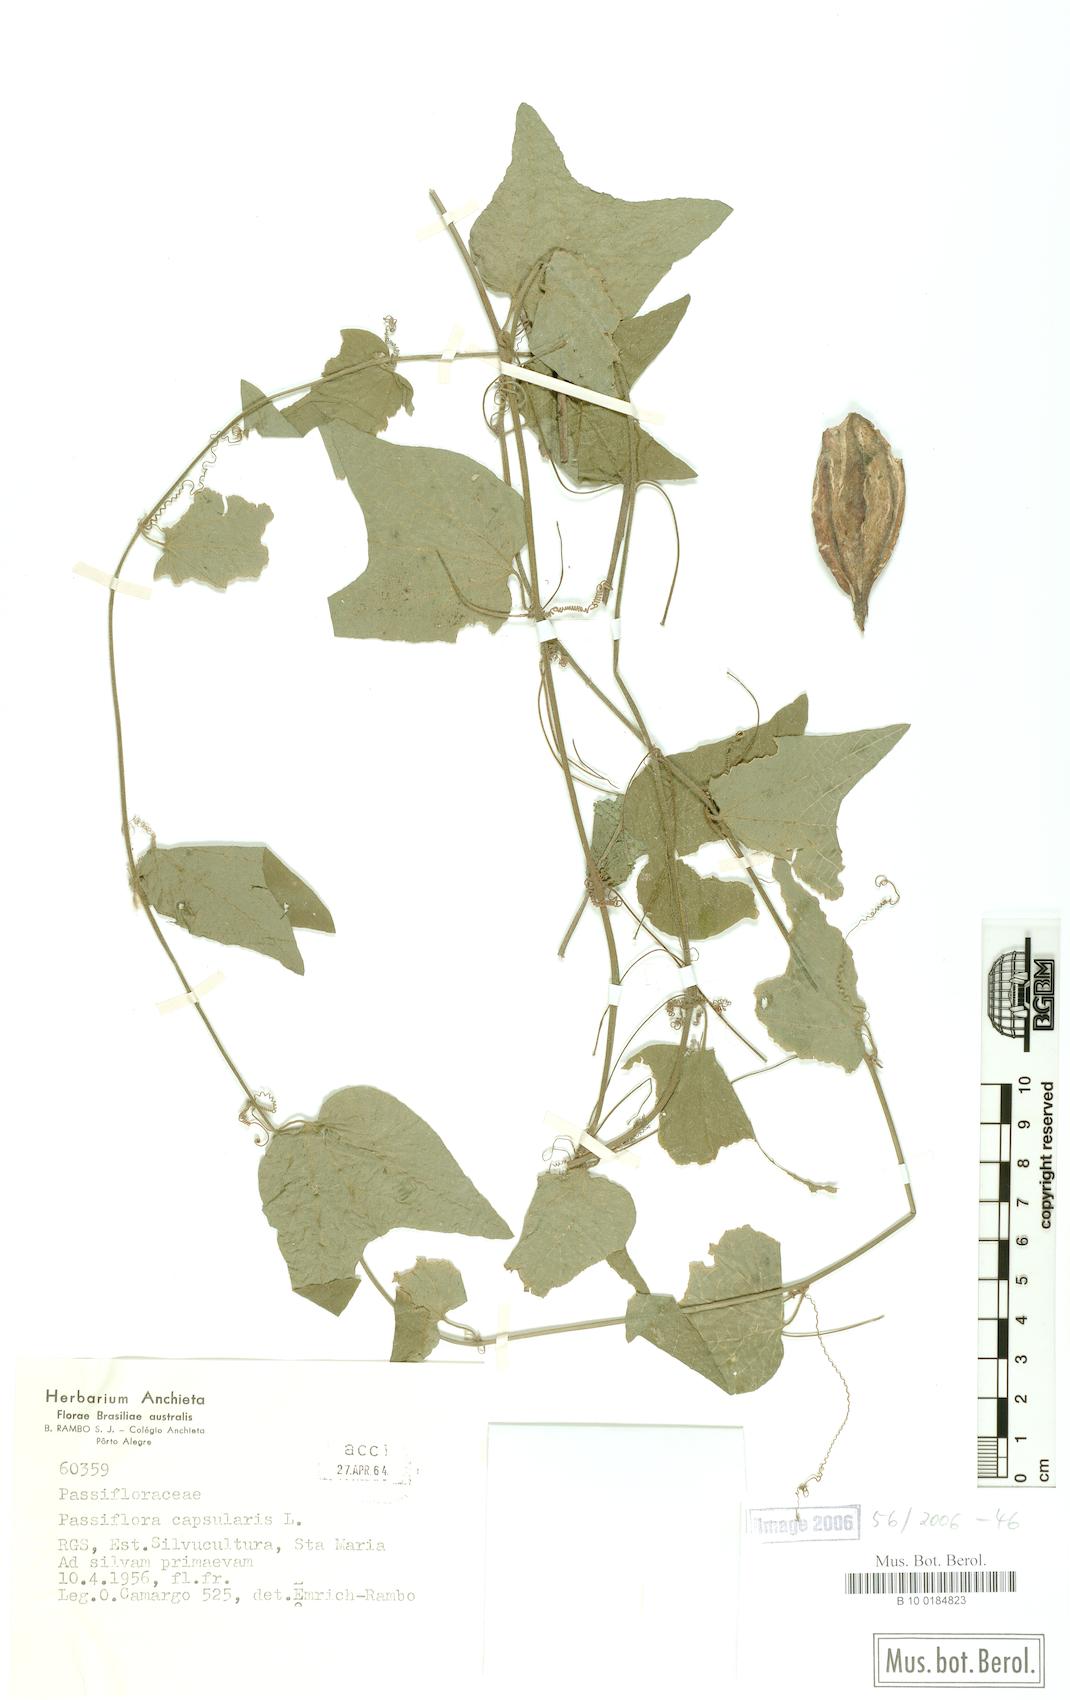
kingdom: Plantae
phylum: Tracheophyta
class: Magnoliopsida
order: Malpighiales
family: Passifloraceae
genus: Passiflora
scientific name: Passiflora capsularis
